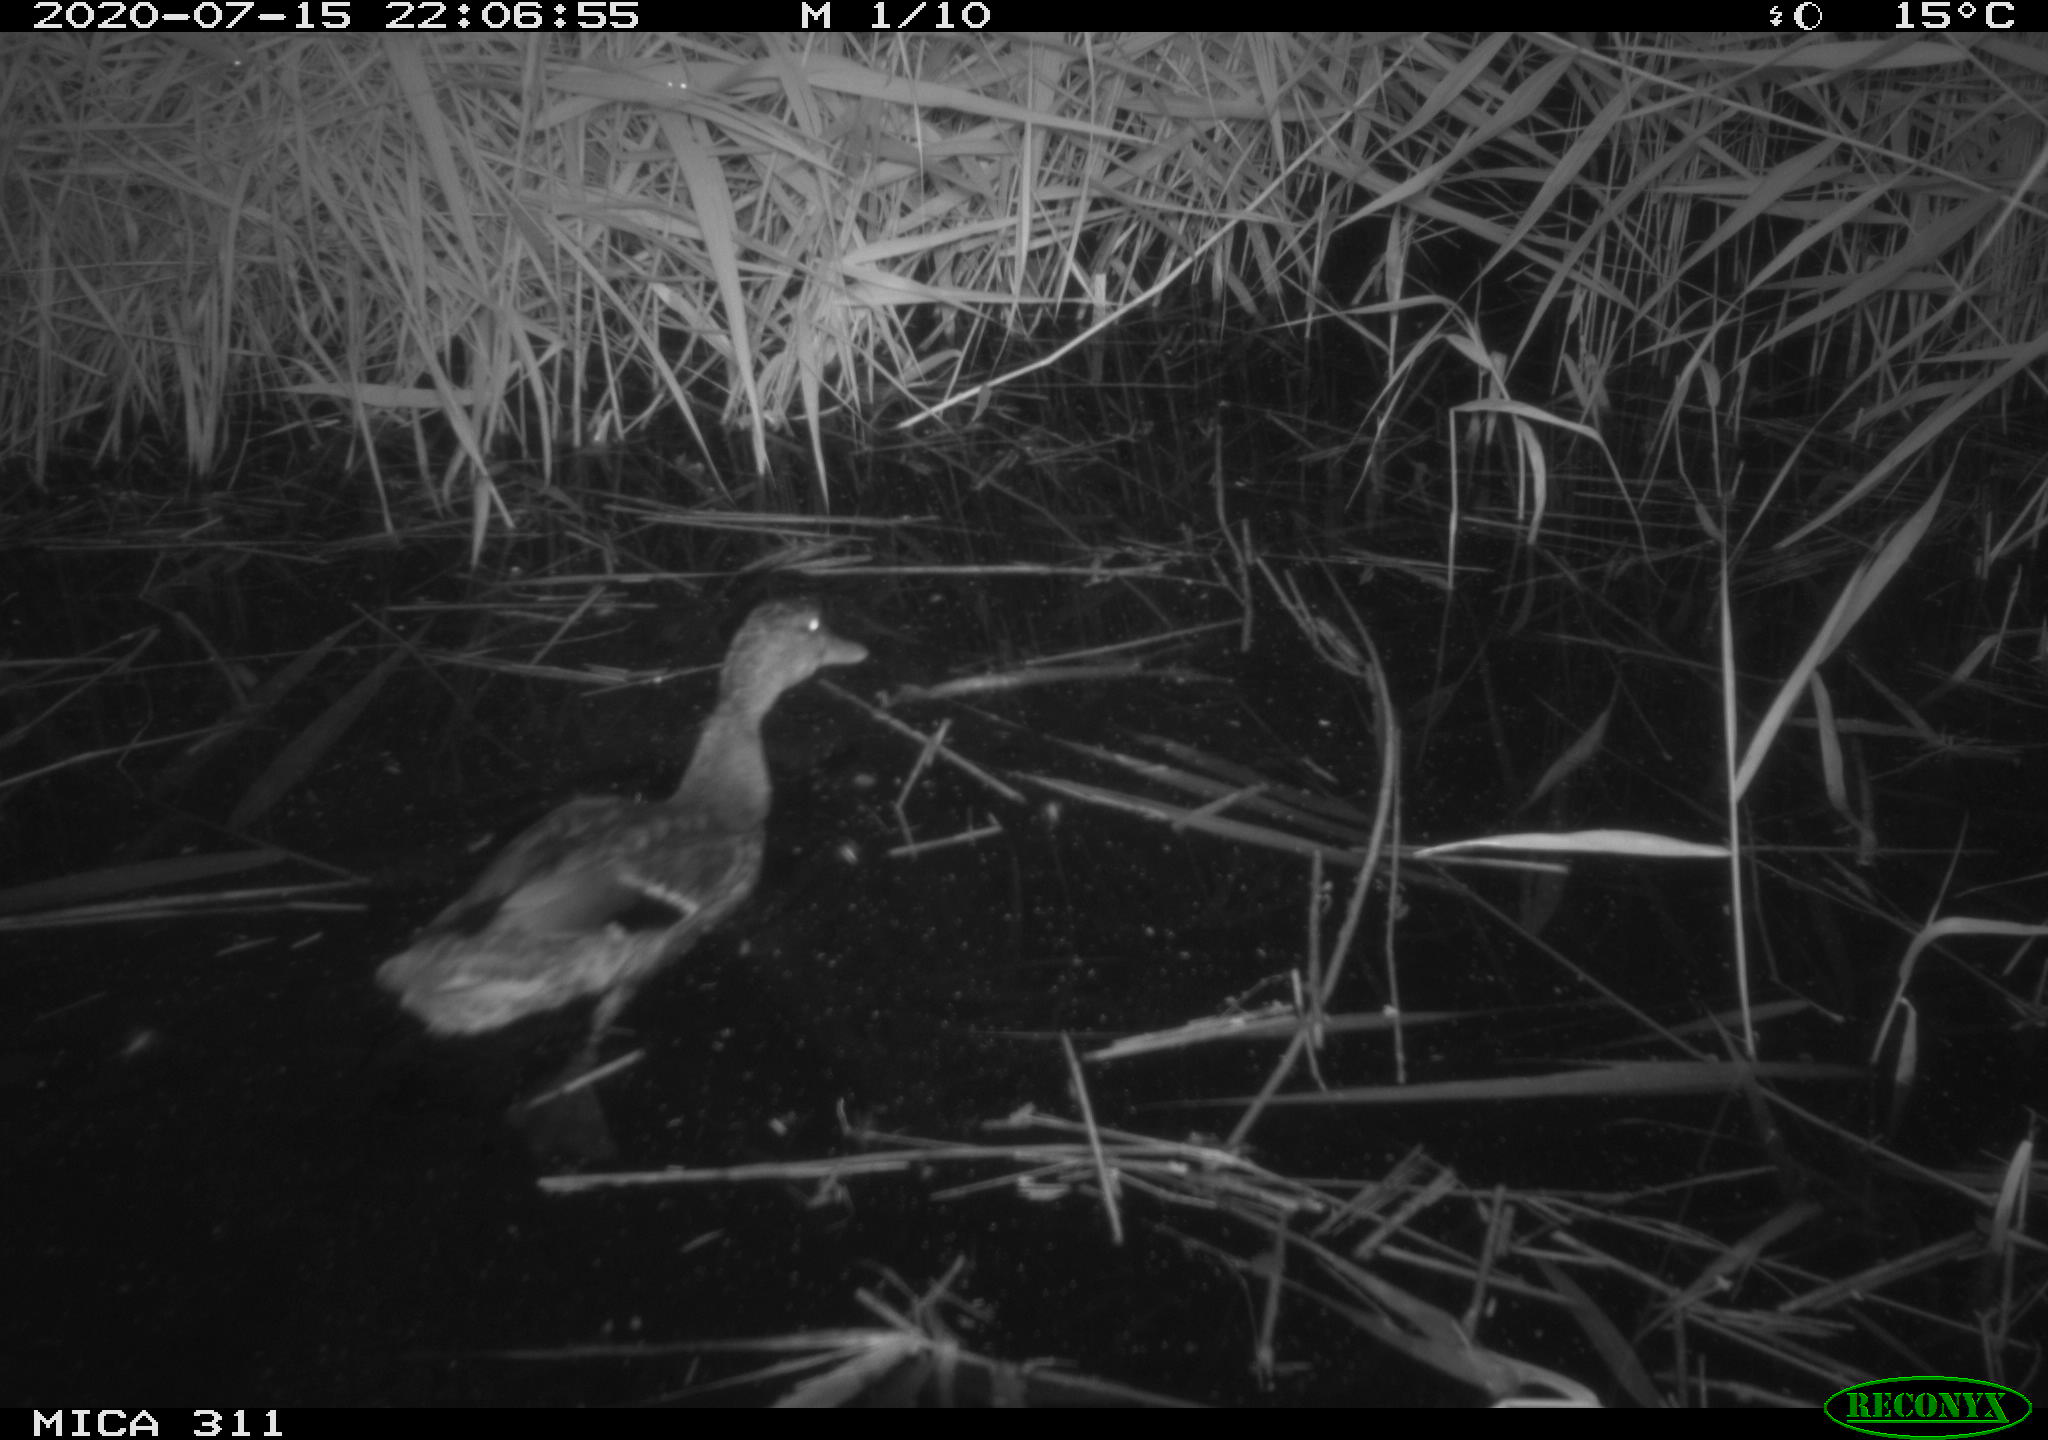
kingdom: Animalia
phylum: Chordata
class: Aves
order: Anseriformes
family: Anatidae
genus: Anas
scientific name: Anas platyrhynchos
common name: Mallard
